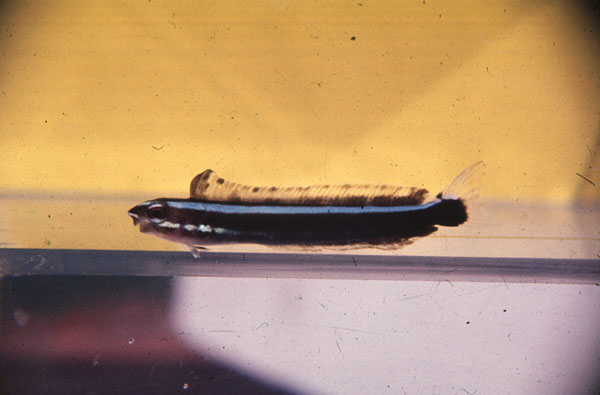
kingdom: Animalia
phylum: Chordata
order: Perciformes
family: Blenniidae
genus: Plagiotremus
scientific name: Plagiotremus rhinorhynchos
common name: Bluestriped fangblenny
